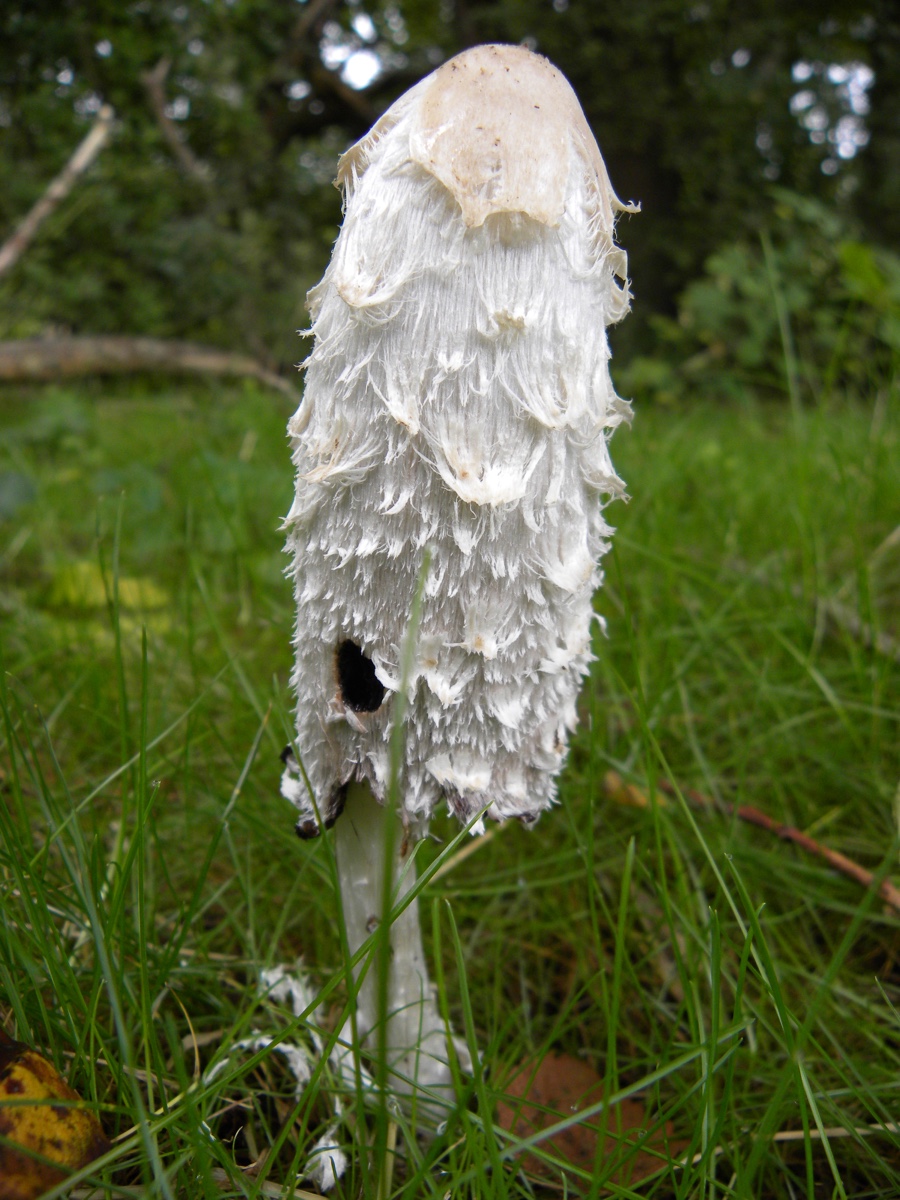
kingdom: Fungi
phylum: Basidiomycota
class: Agaricomycetes
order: Agaricales
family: Agaricaceae
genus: Coprinus
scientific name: Coprinus comatus
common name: stor parykhat
